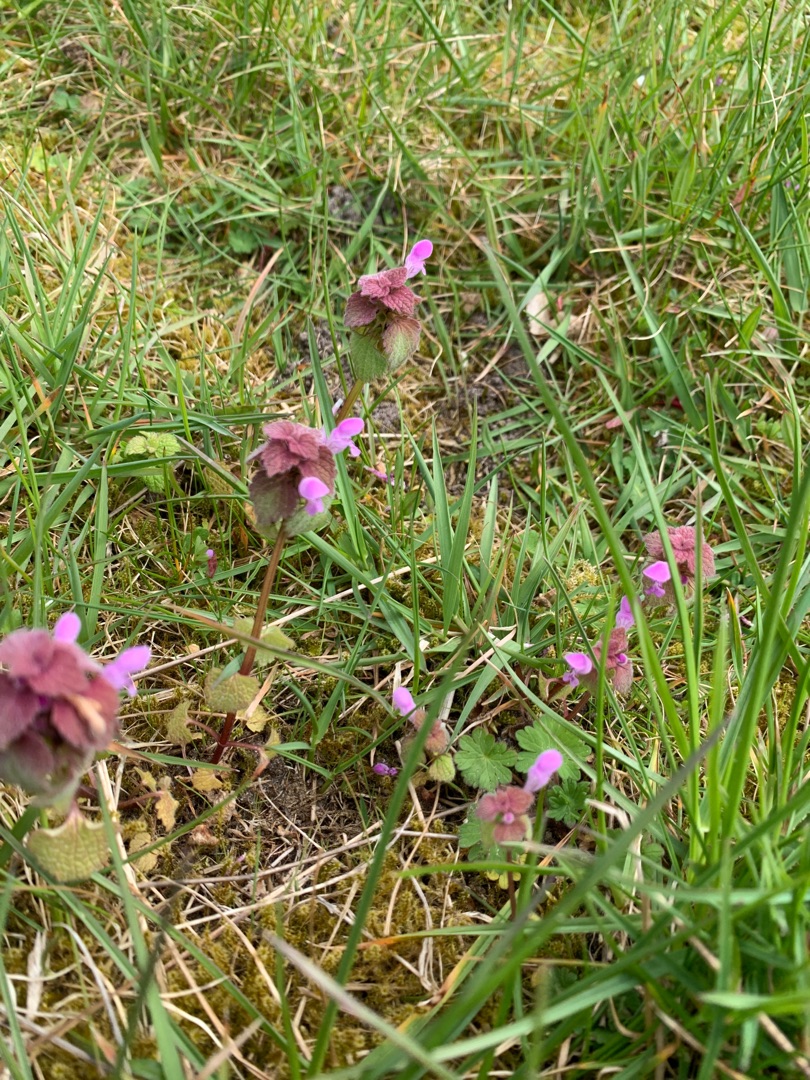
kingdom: Plantae
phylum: Tracheophyta
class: Magnoliopsida
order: Lamiales
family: Lamiaceae
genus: Lamium
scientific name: Lamium purpureum
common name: Rød tvetand
